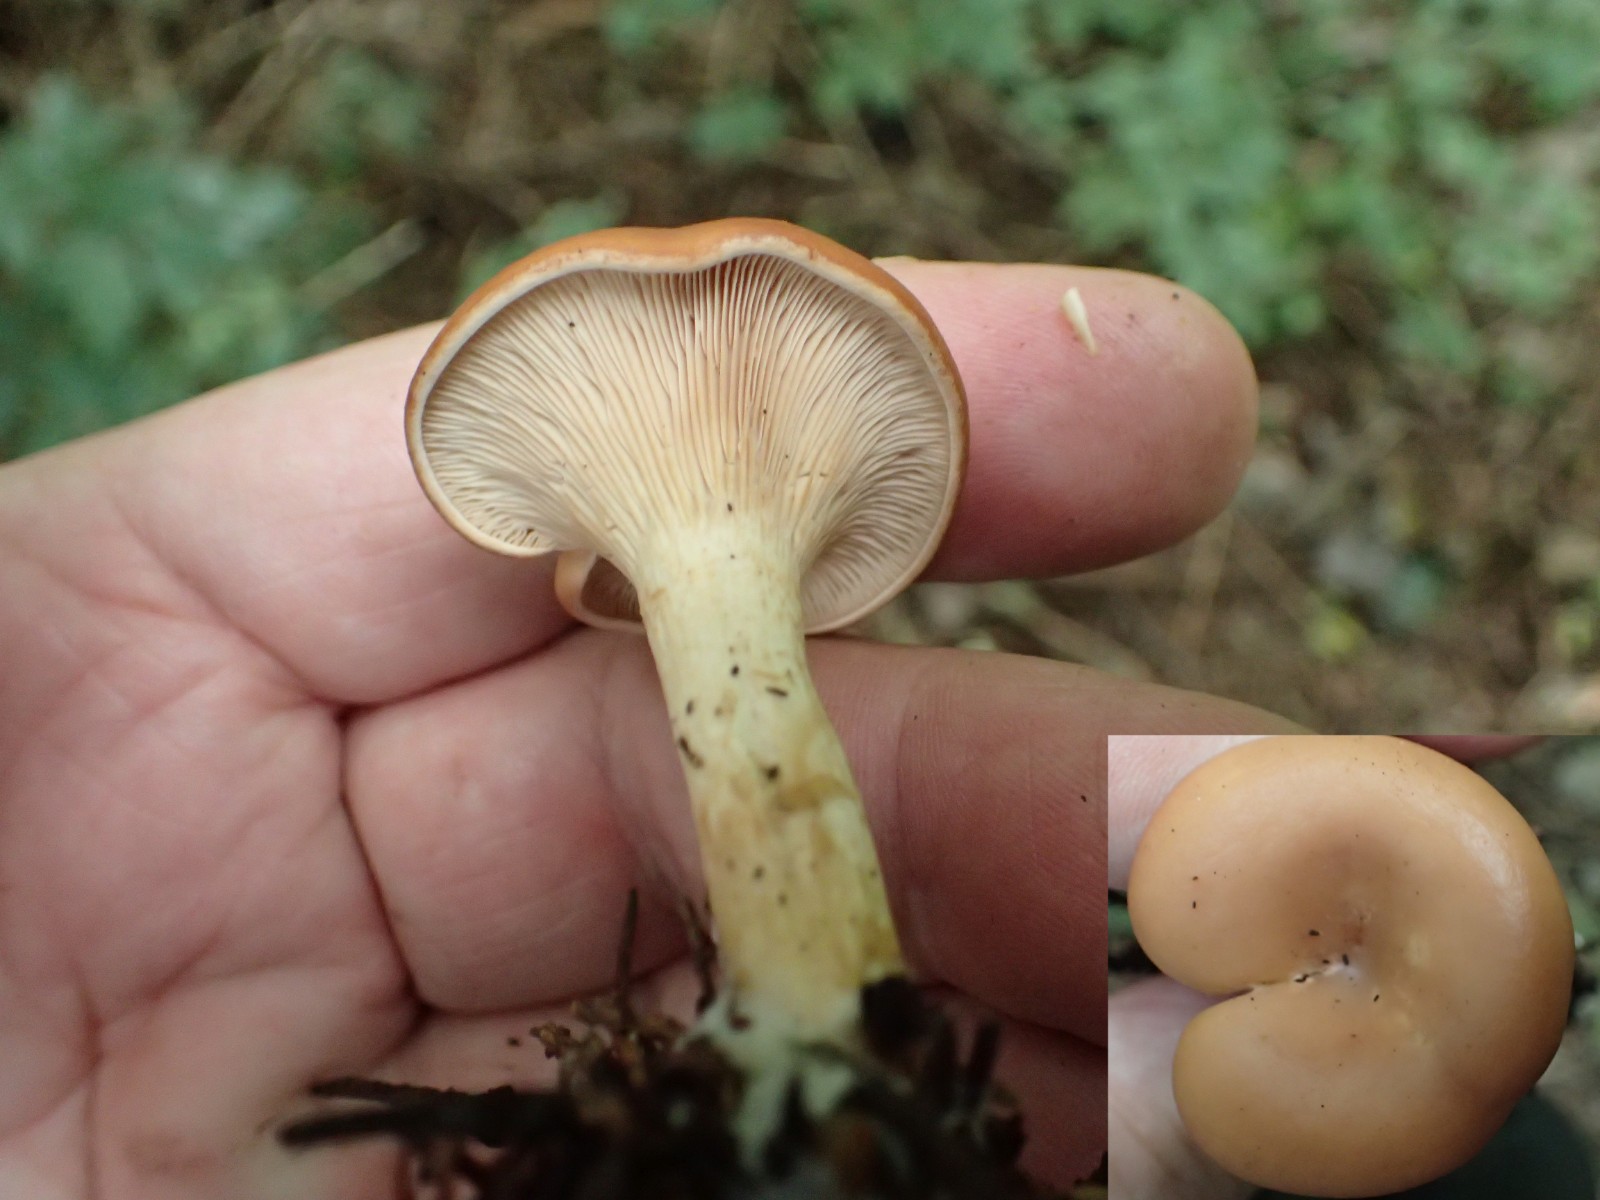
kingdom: Fungi
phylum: Basidiomycota
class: Agaricomycetes
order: Agaricales
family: Tricholomataceae
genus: Paralepista
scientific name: Paralepista flaccida
